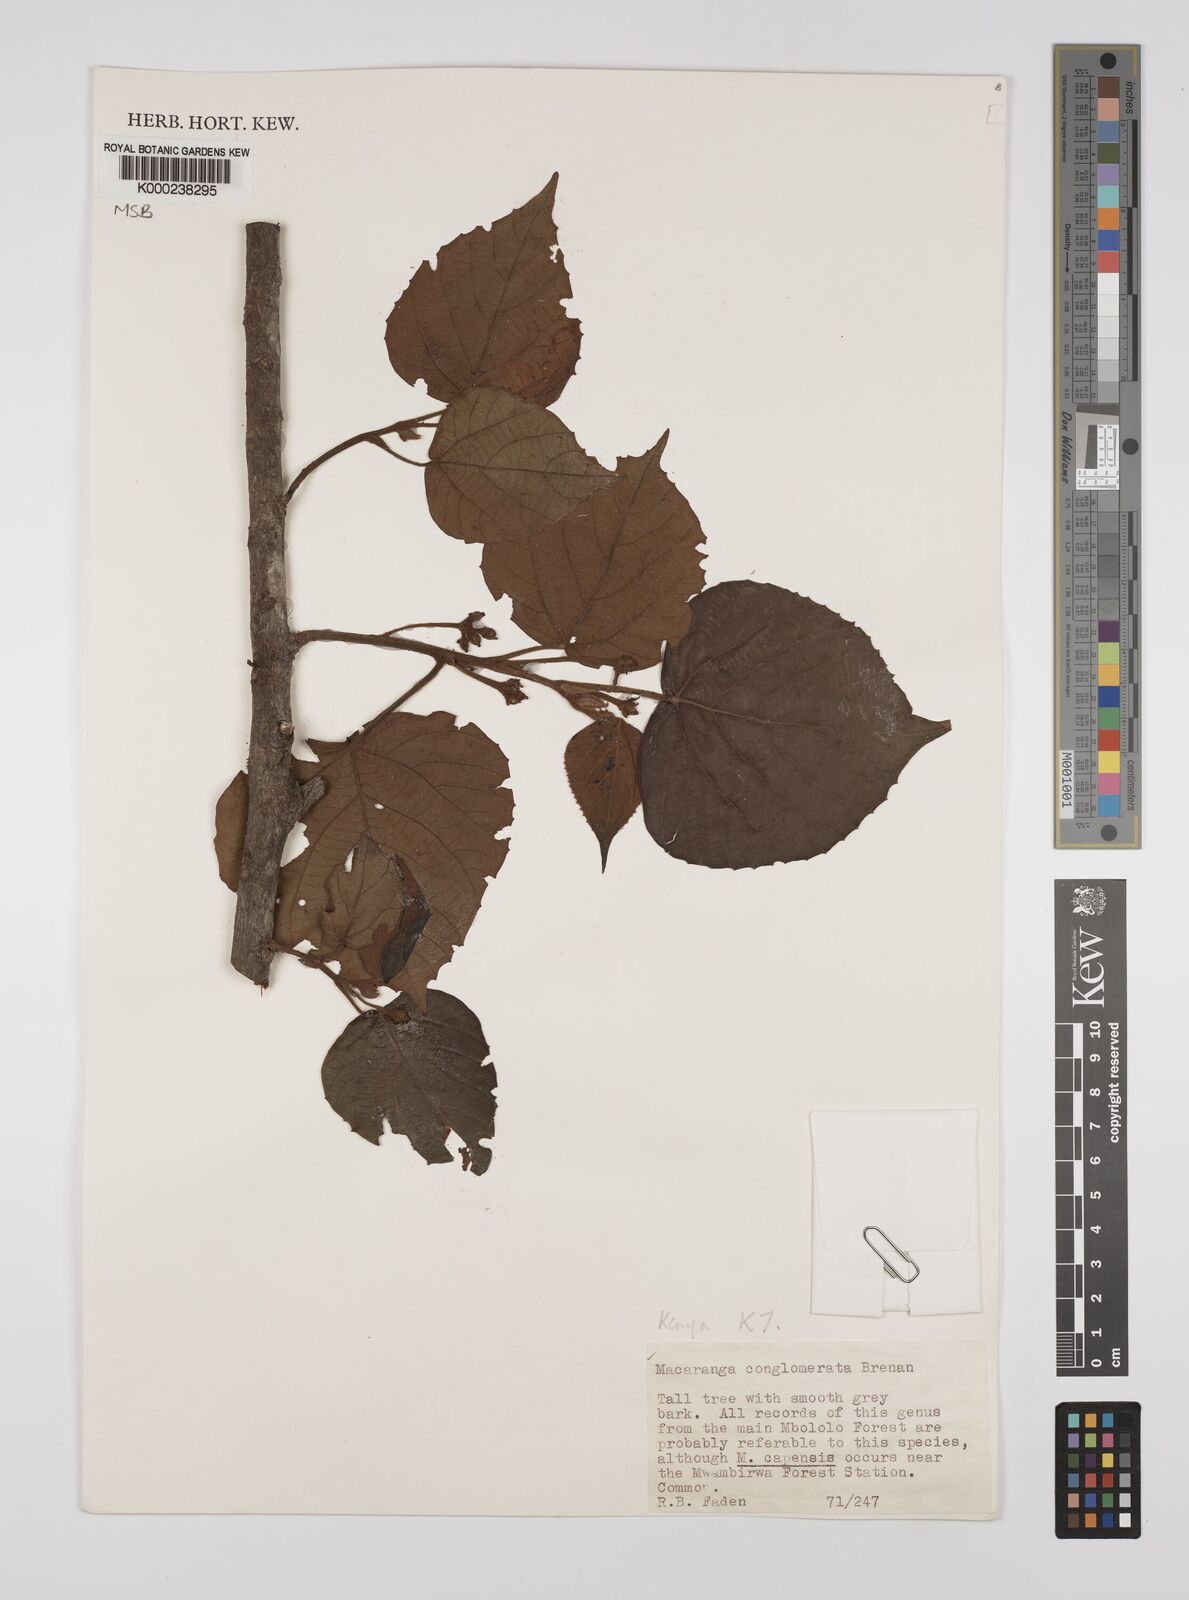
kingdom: Plantae
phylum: Tracheophyta
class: Magnoliopsida
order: Malpighiales
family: Euphorbiaceae
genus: Macaranga
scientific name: Macaranga conglomerata
